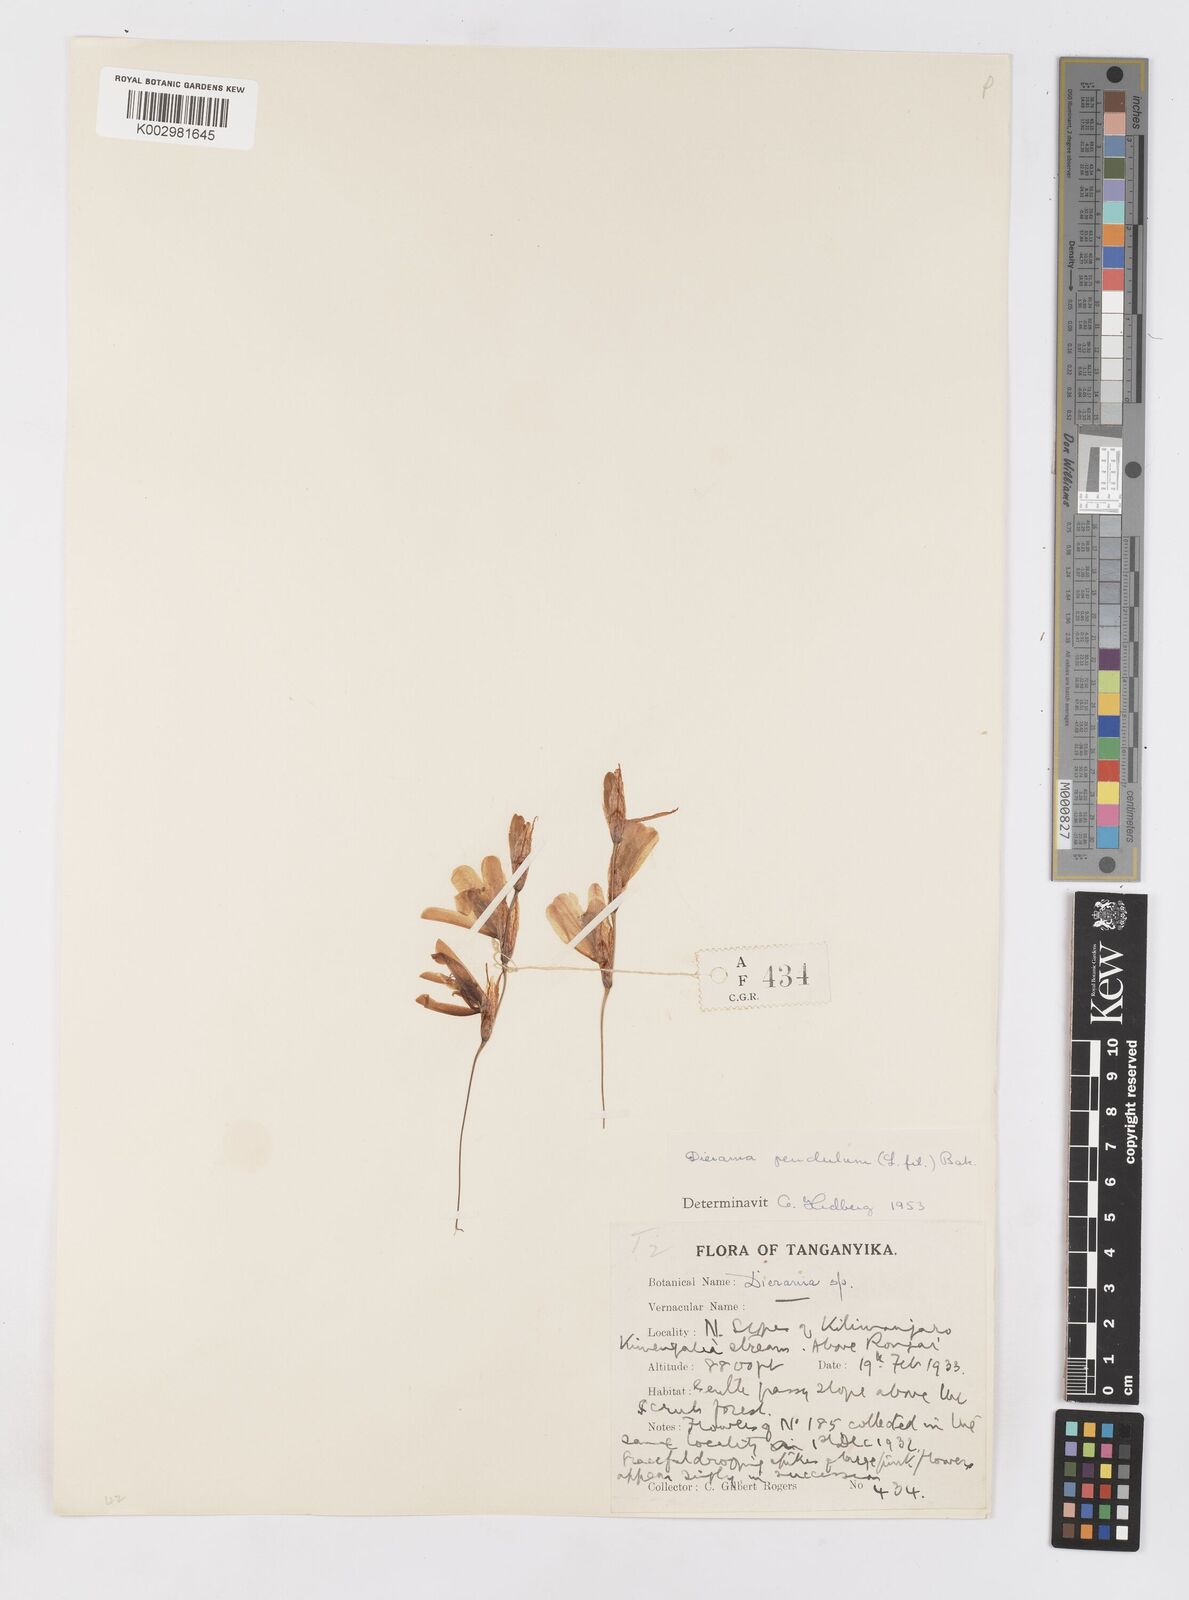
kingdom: Plantae
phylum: Tracheophyta
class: Liliopsida
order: Asparagales
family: Iridaceae
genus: Dierama
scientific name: Dierama cupuliflorum
